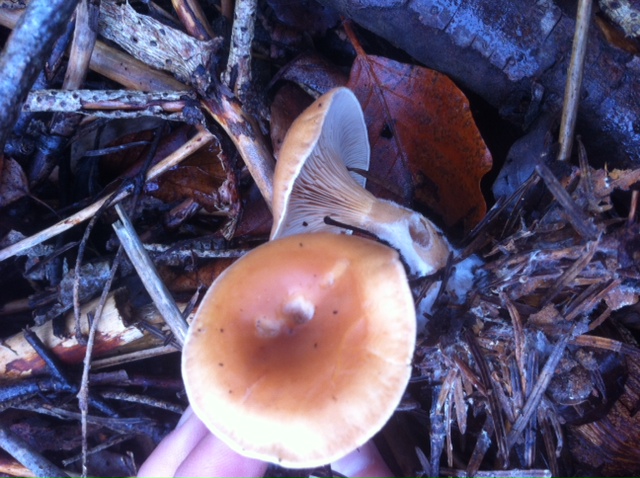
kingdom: Fungi
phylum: Basidiomycota
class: Agaricomycetes
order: Agaricales
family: Tricholomataceae
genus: Paralepista
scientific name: Paralepista flaccida
